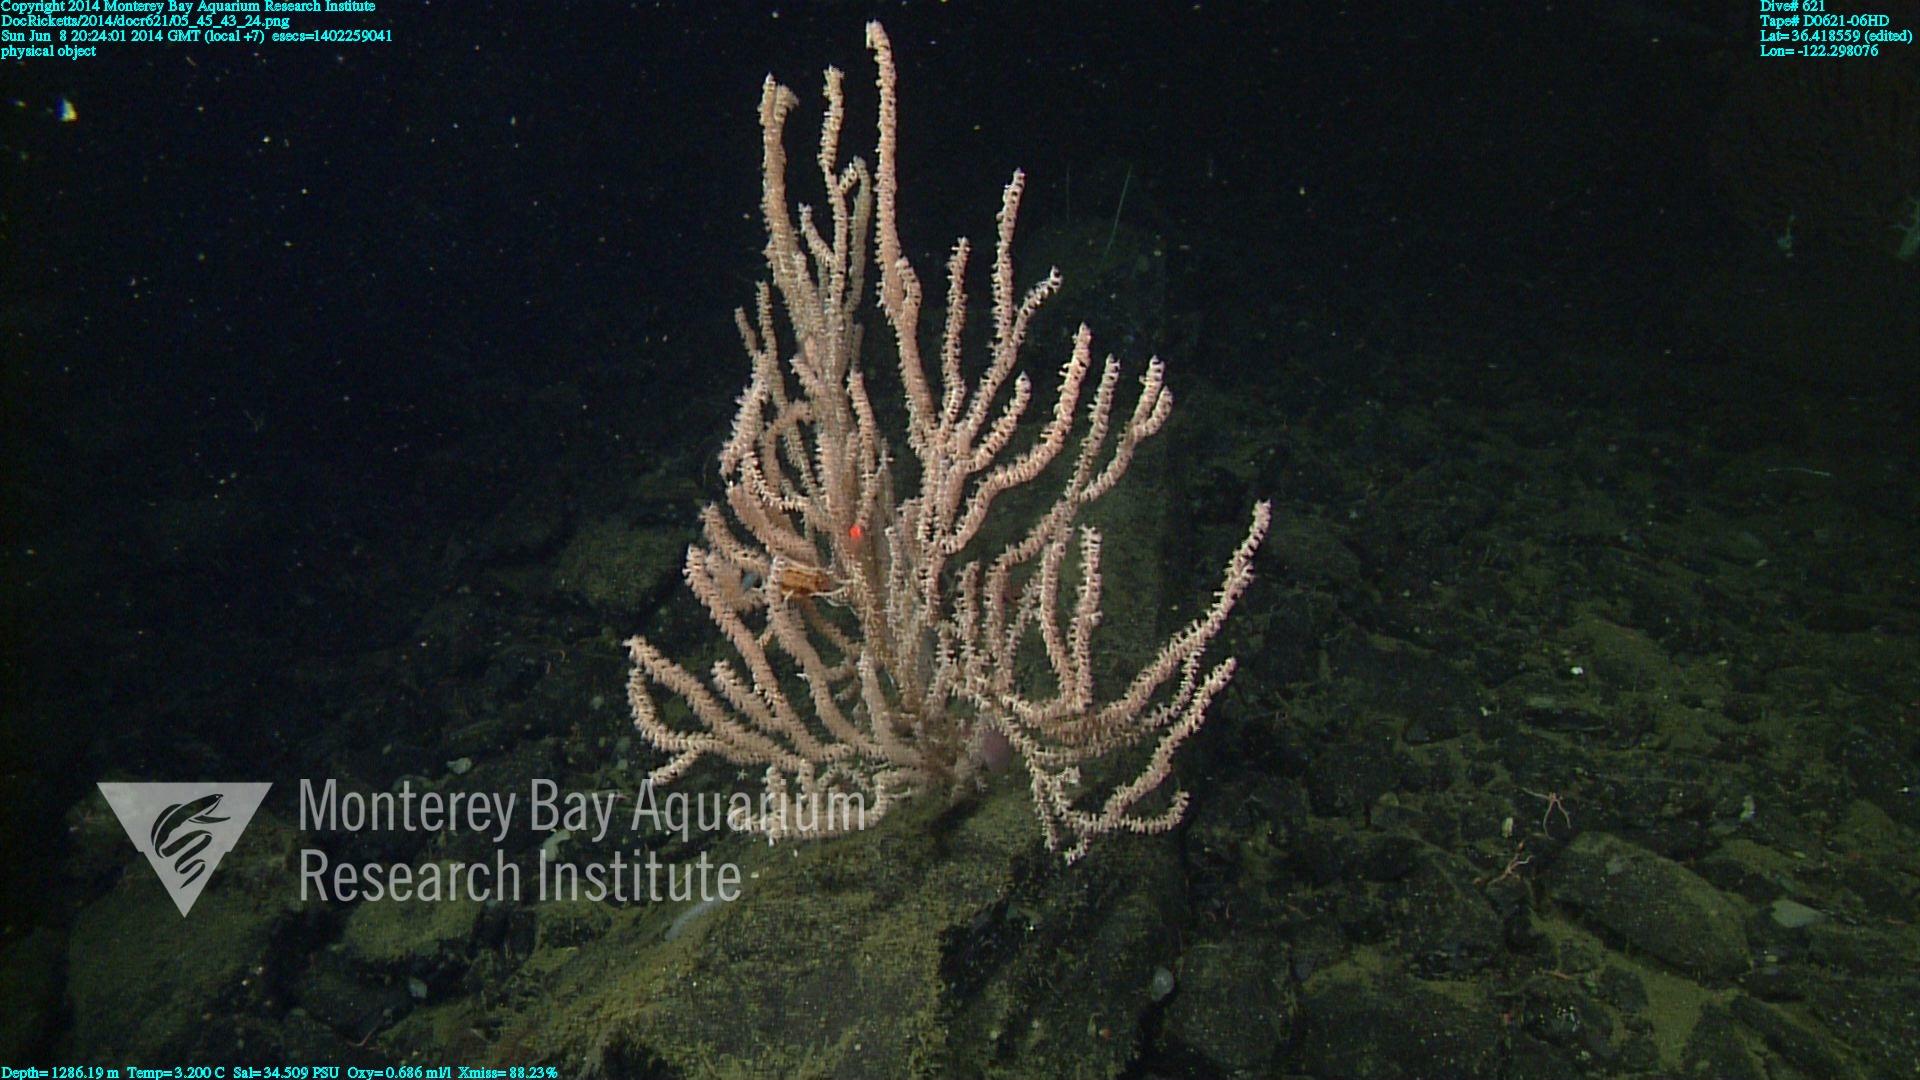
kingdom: Animalia
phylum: Cnidaria
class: Anthozoa
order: Scleralcyonacea
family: Keratoisididae
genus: Keratoisis
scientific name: Keratoisis
